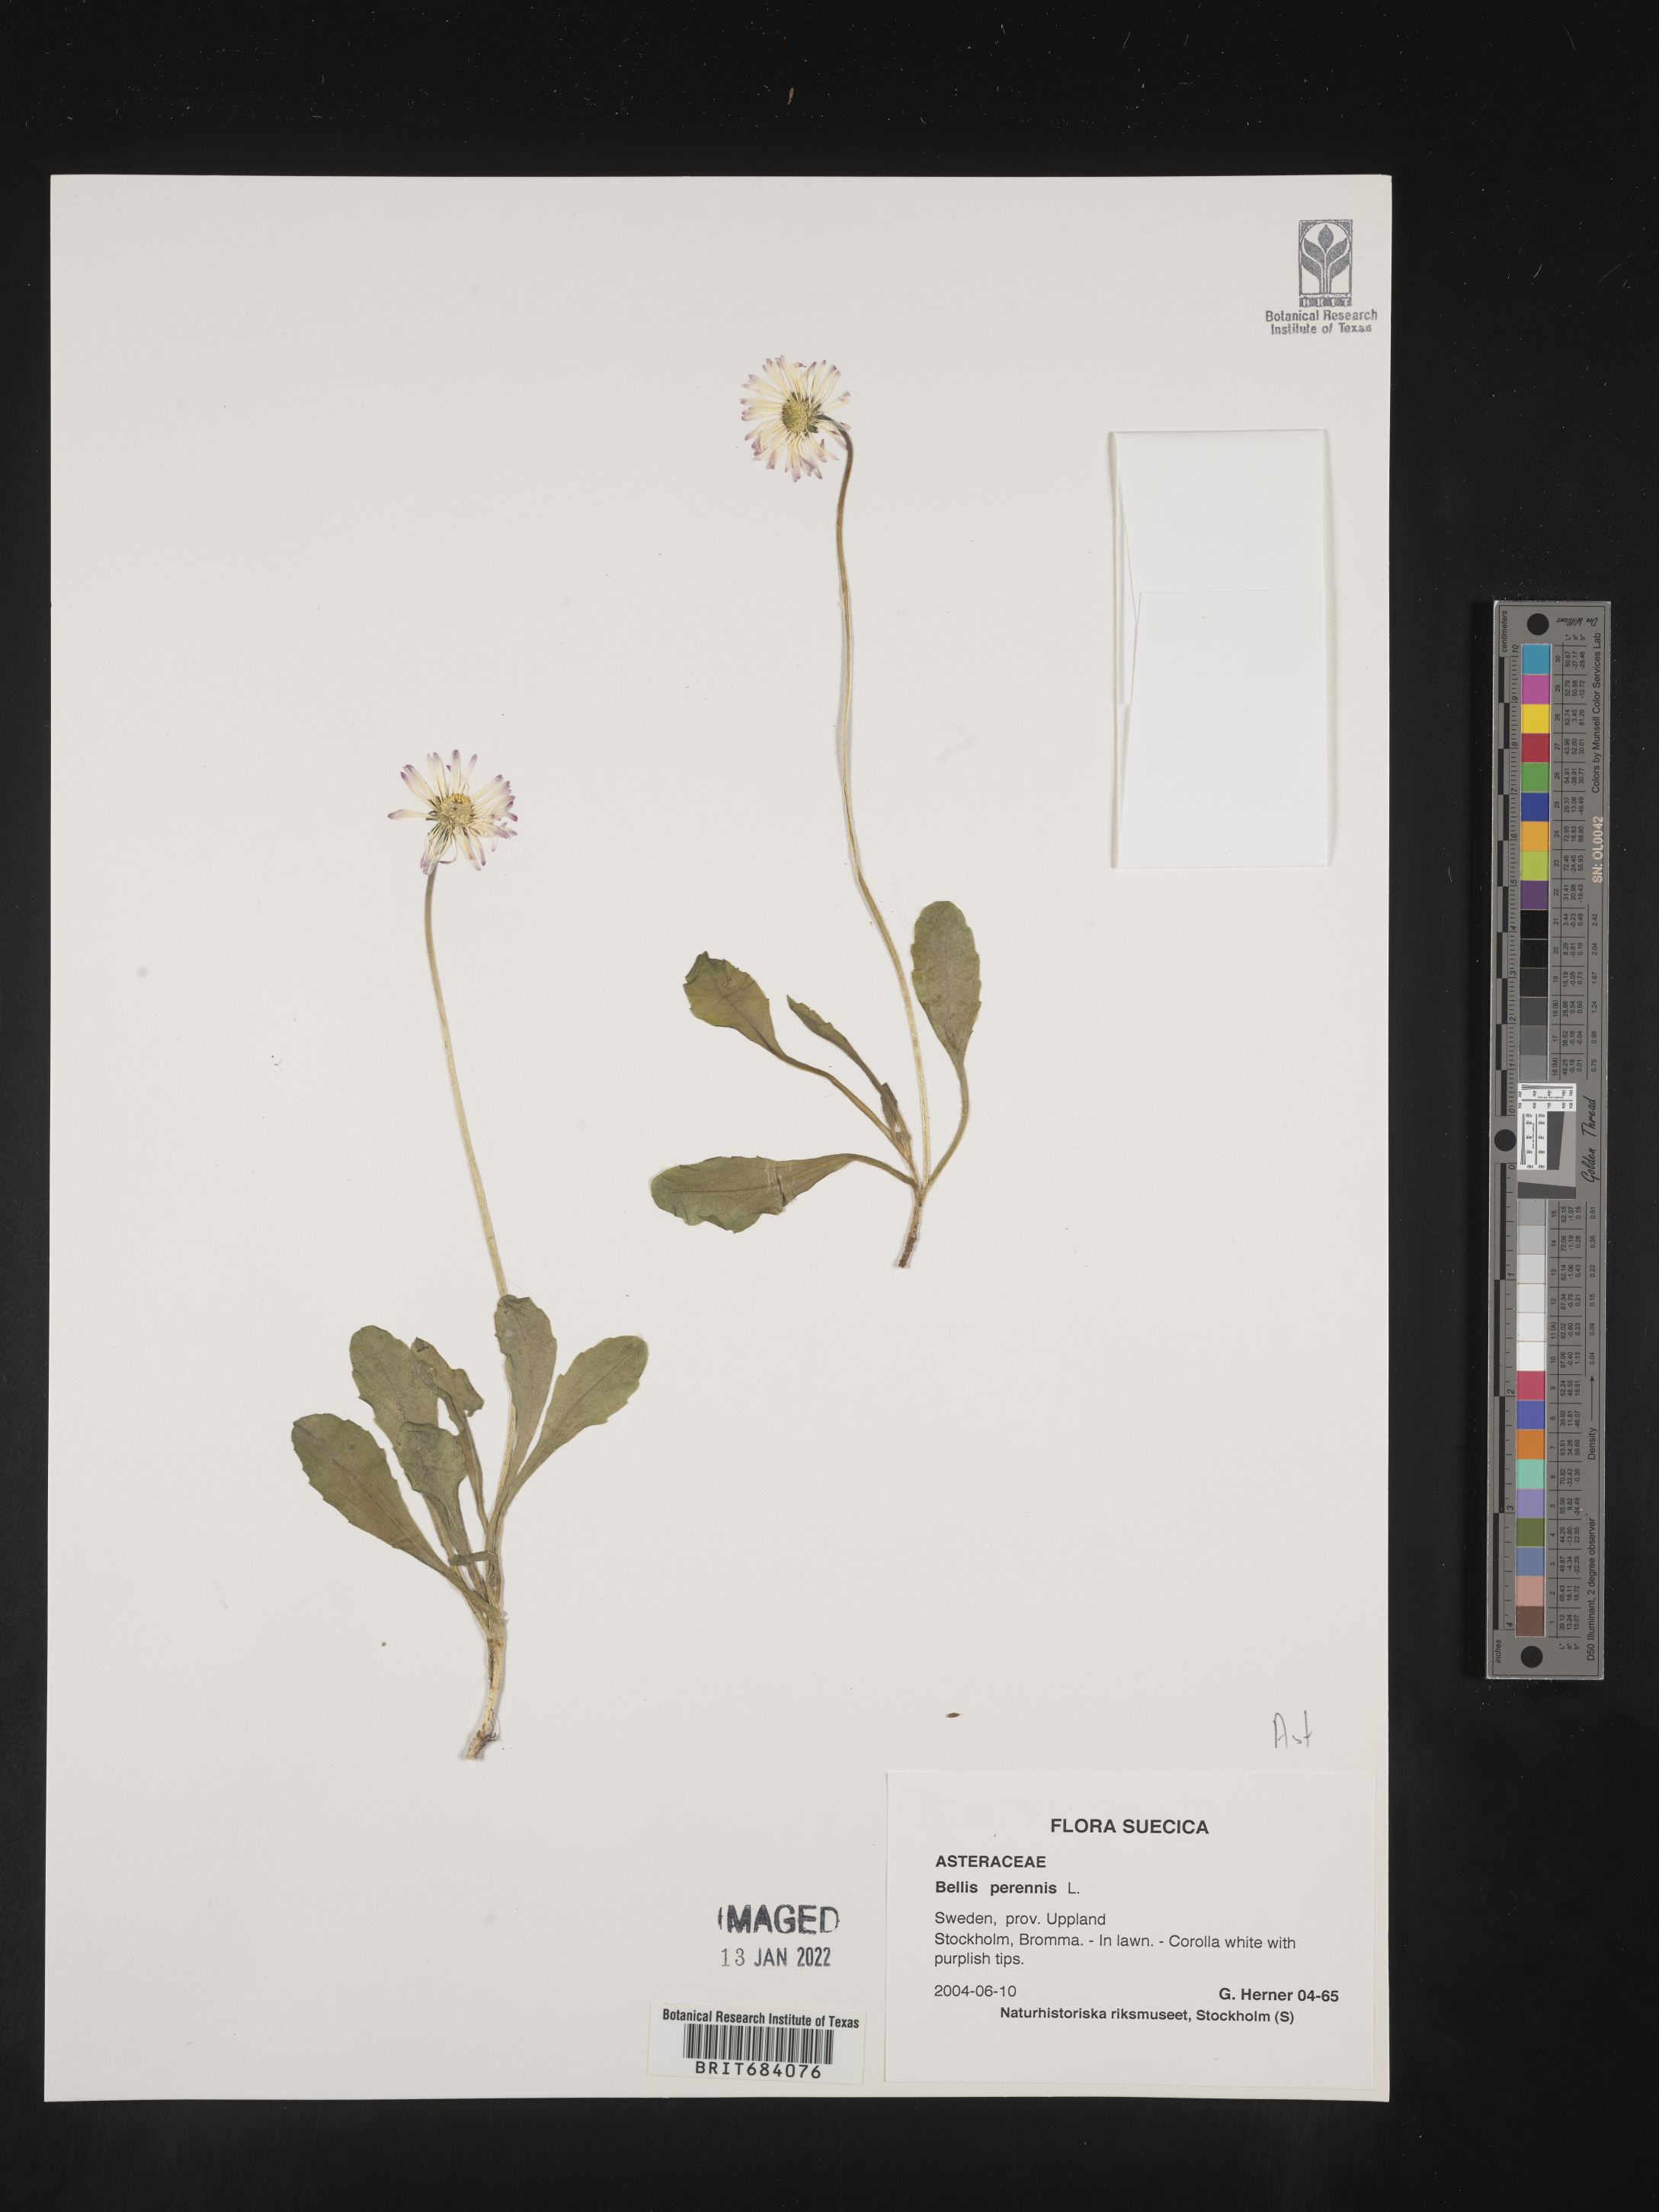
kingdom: Plantae
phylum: Tracheophyta
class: Magnoliopsida
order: Asterales
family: Asteraceae
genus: Bellis
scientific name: Bellis
